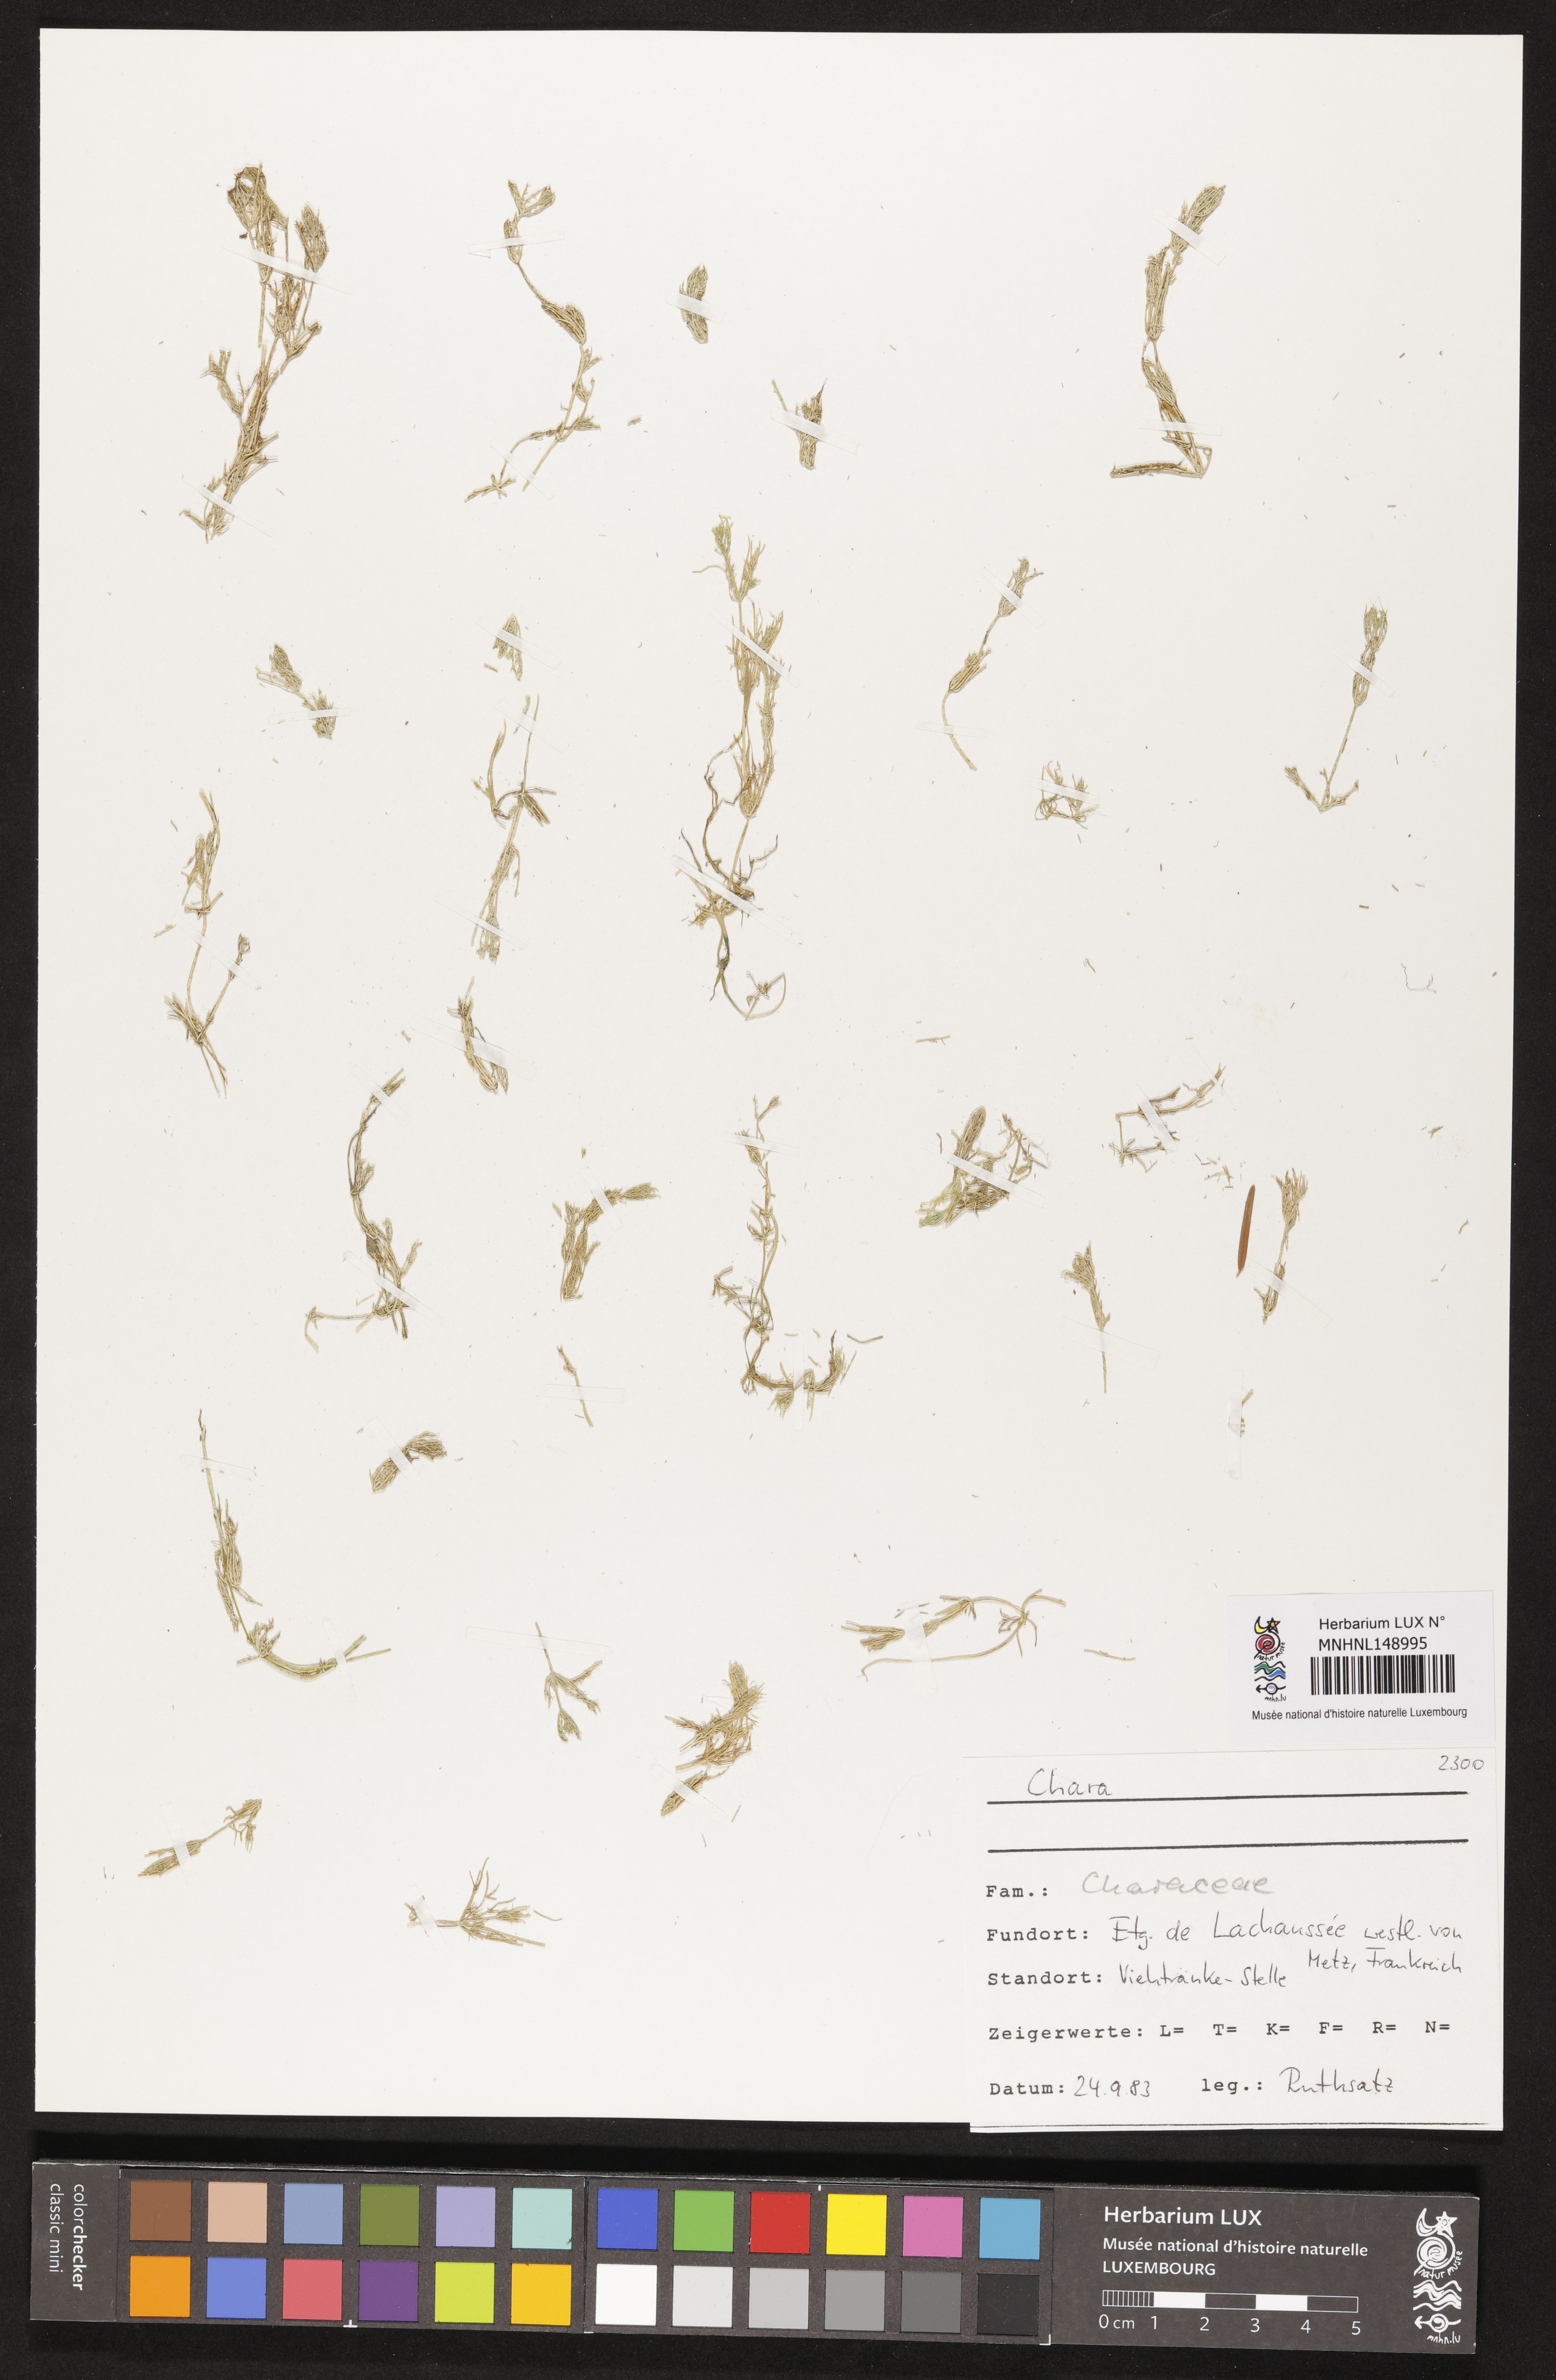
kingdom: Plantae
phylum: Charophyta
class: Charophyceae
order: Charales
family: Characeae
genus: Chara
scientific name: Chara
